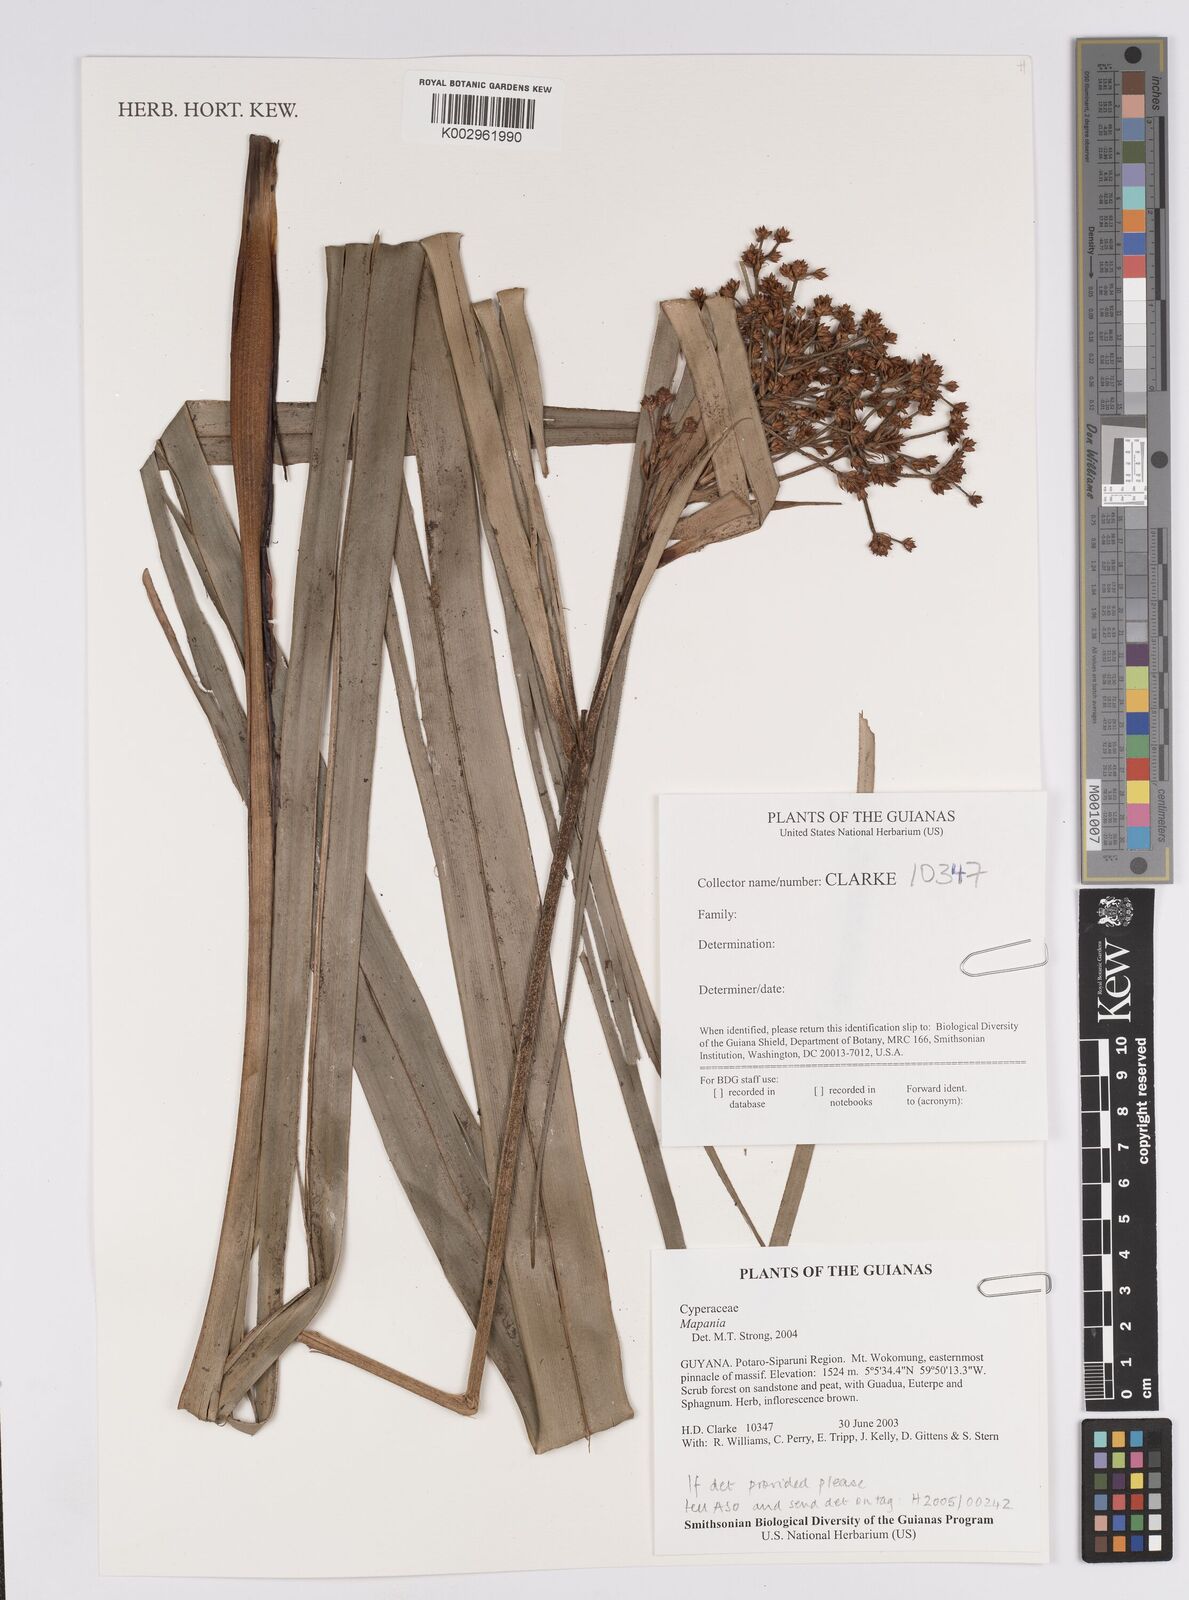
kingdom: Plantae
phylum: Tracheophyta
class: Liliopsida
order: Poales
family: Cyperaceae
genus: Mapania
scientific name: Mapania
